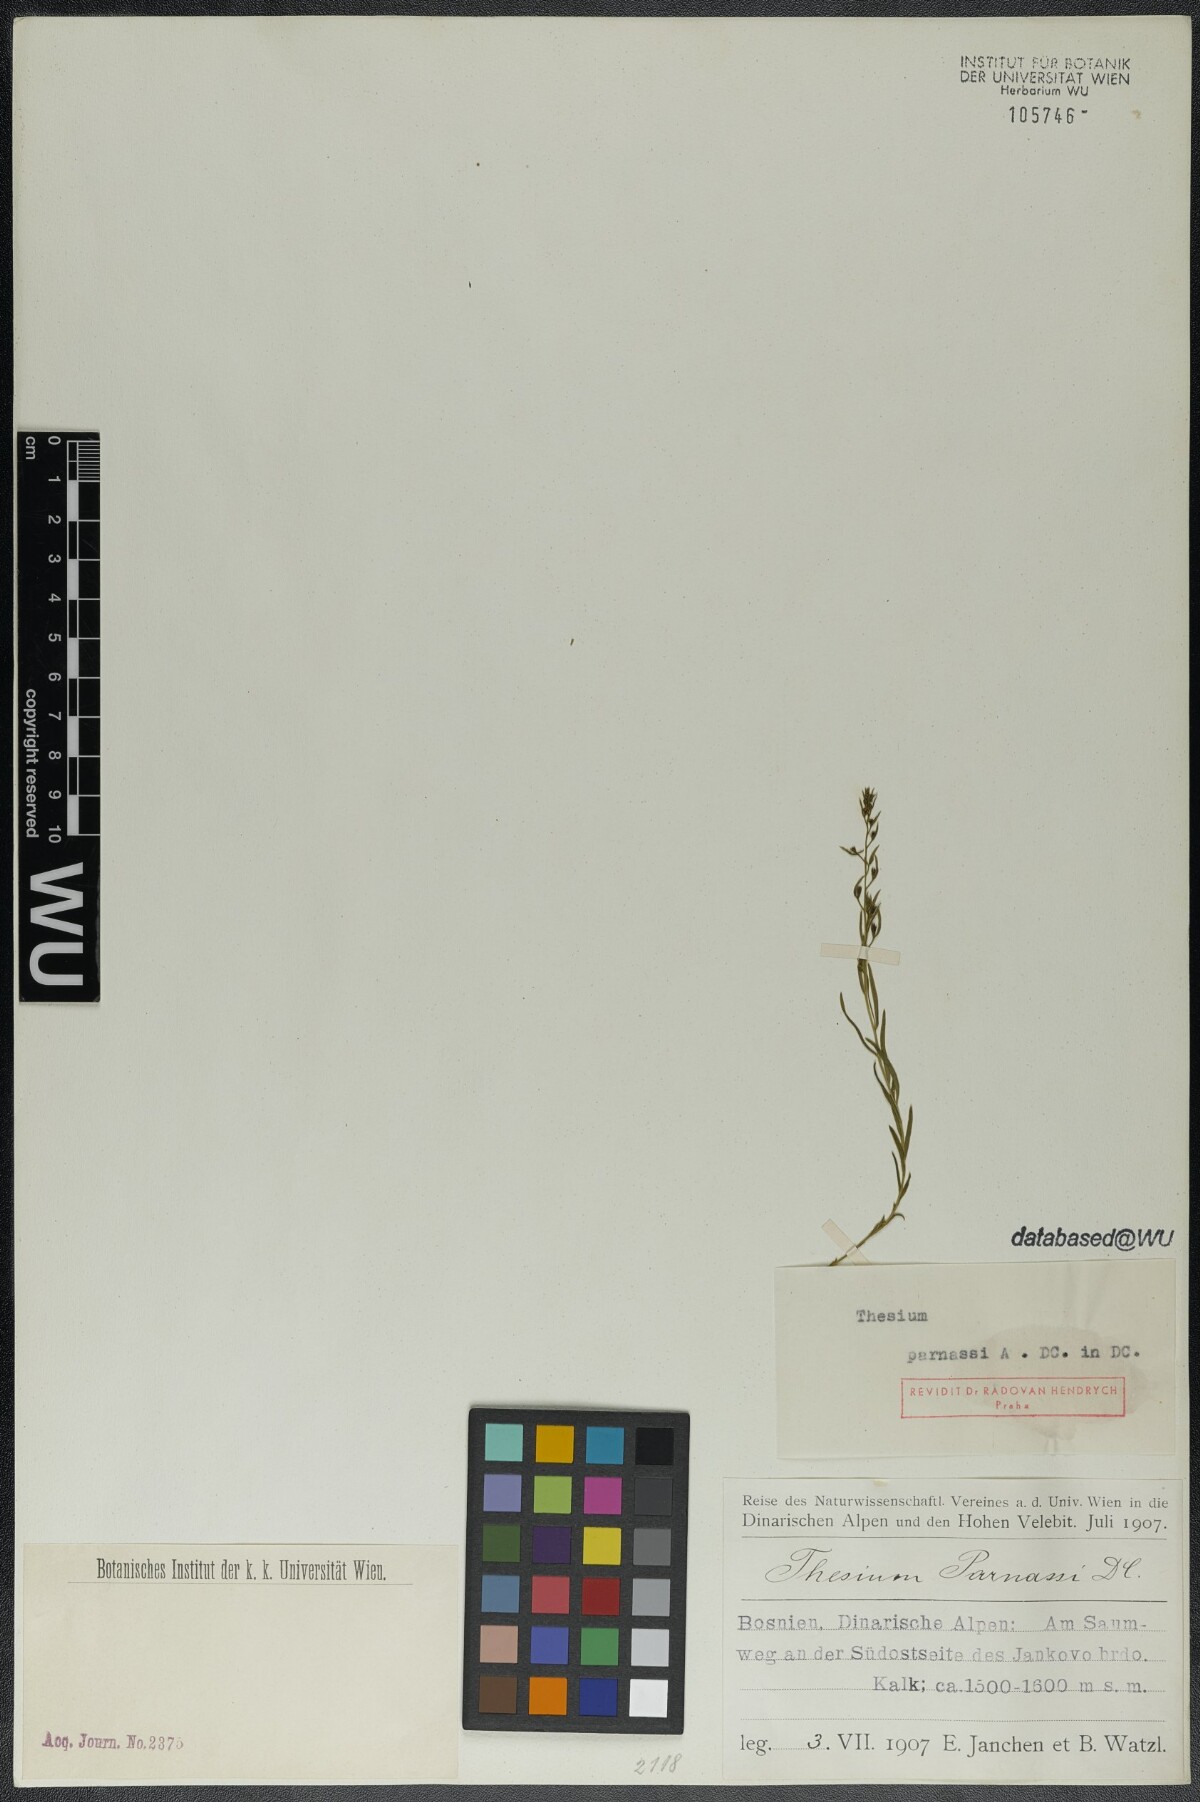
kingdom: Plantae
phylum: Tracheophyta
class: Magnoliopsida
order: Santalales
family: Thesiaceae
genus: Thesium
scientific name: Thesium parnassi
